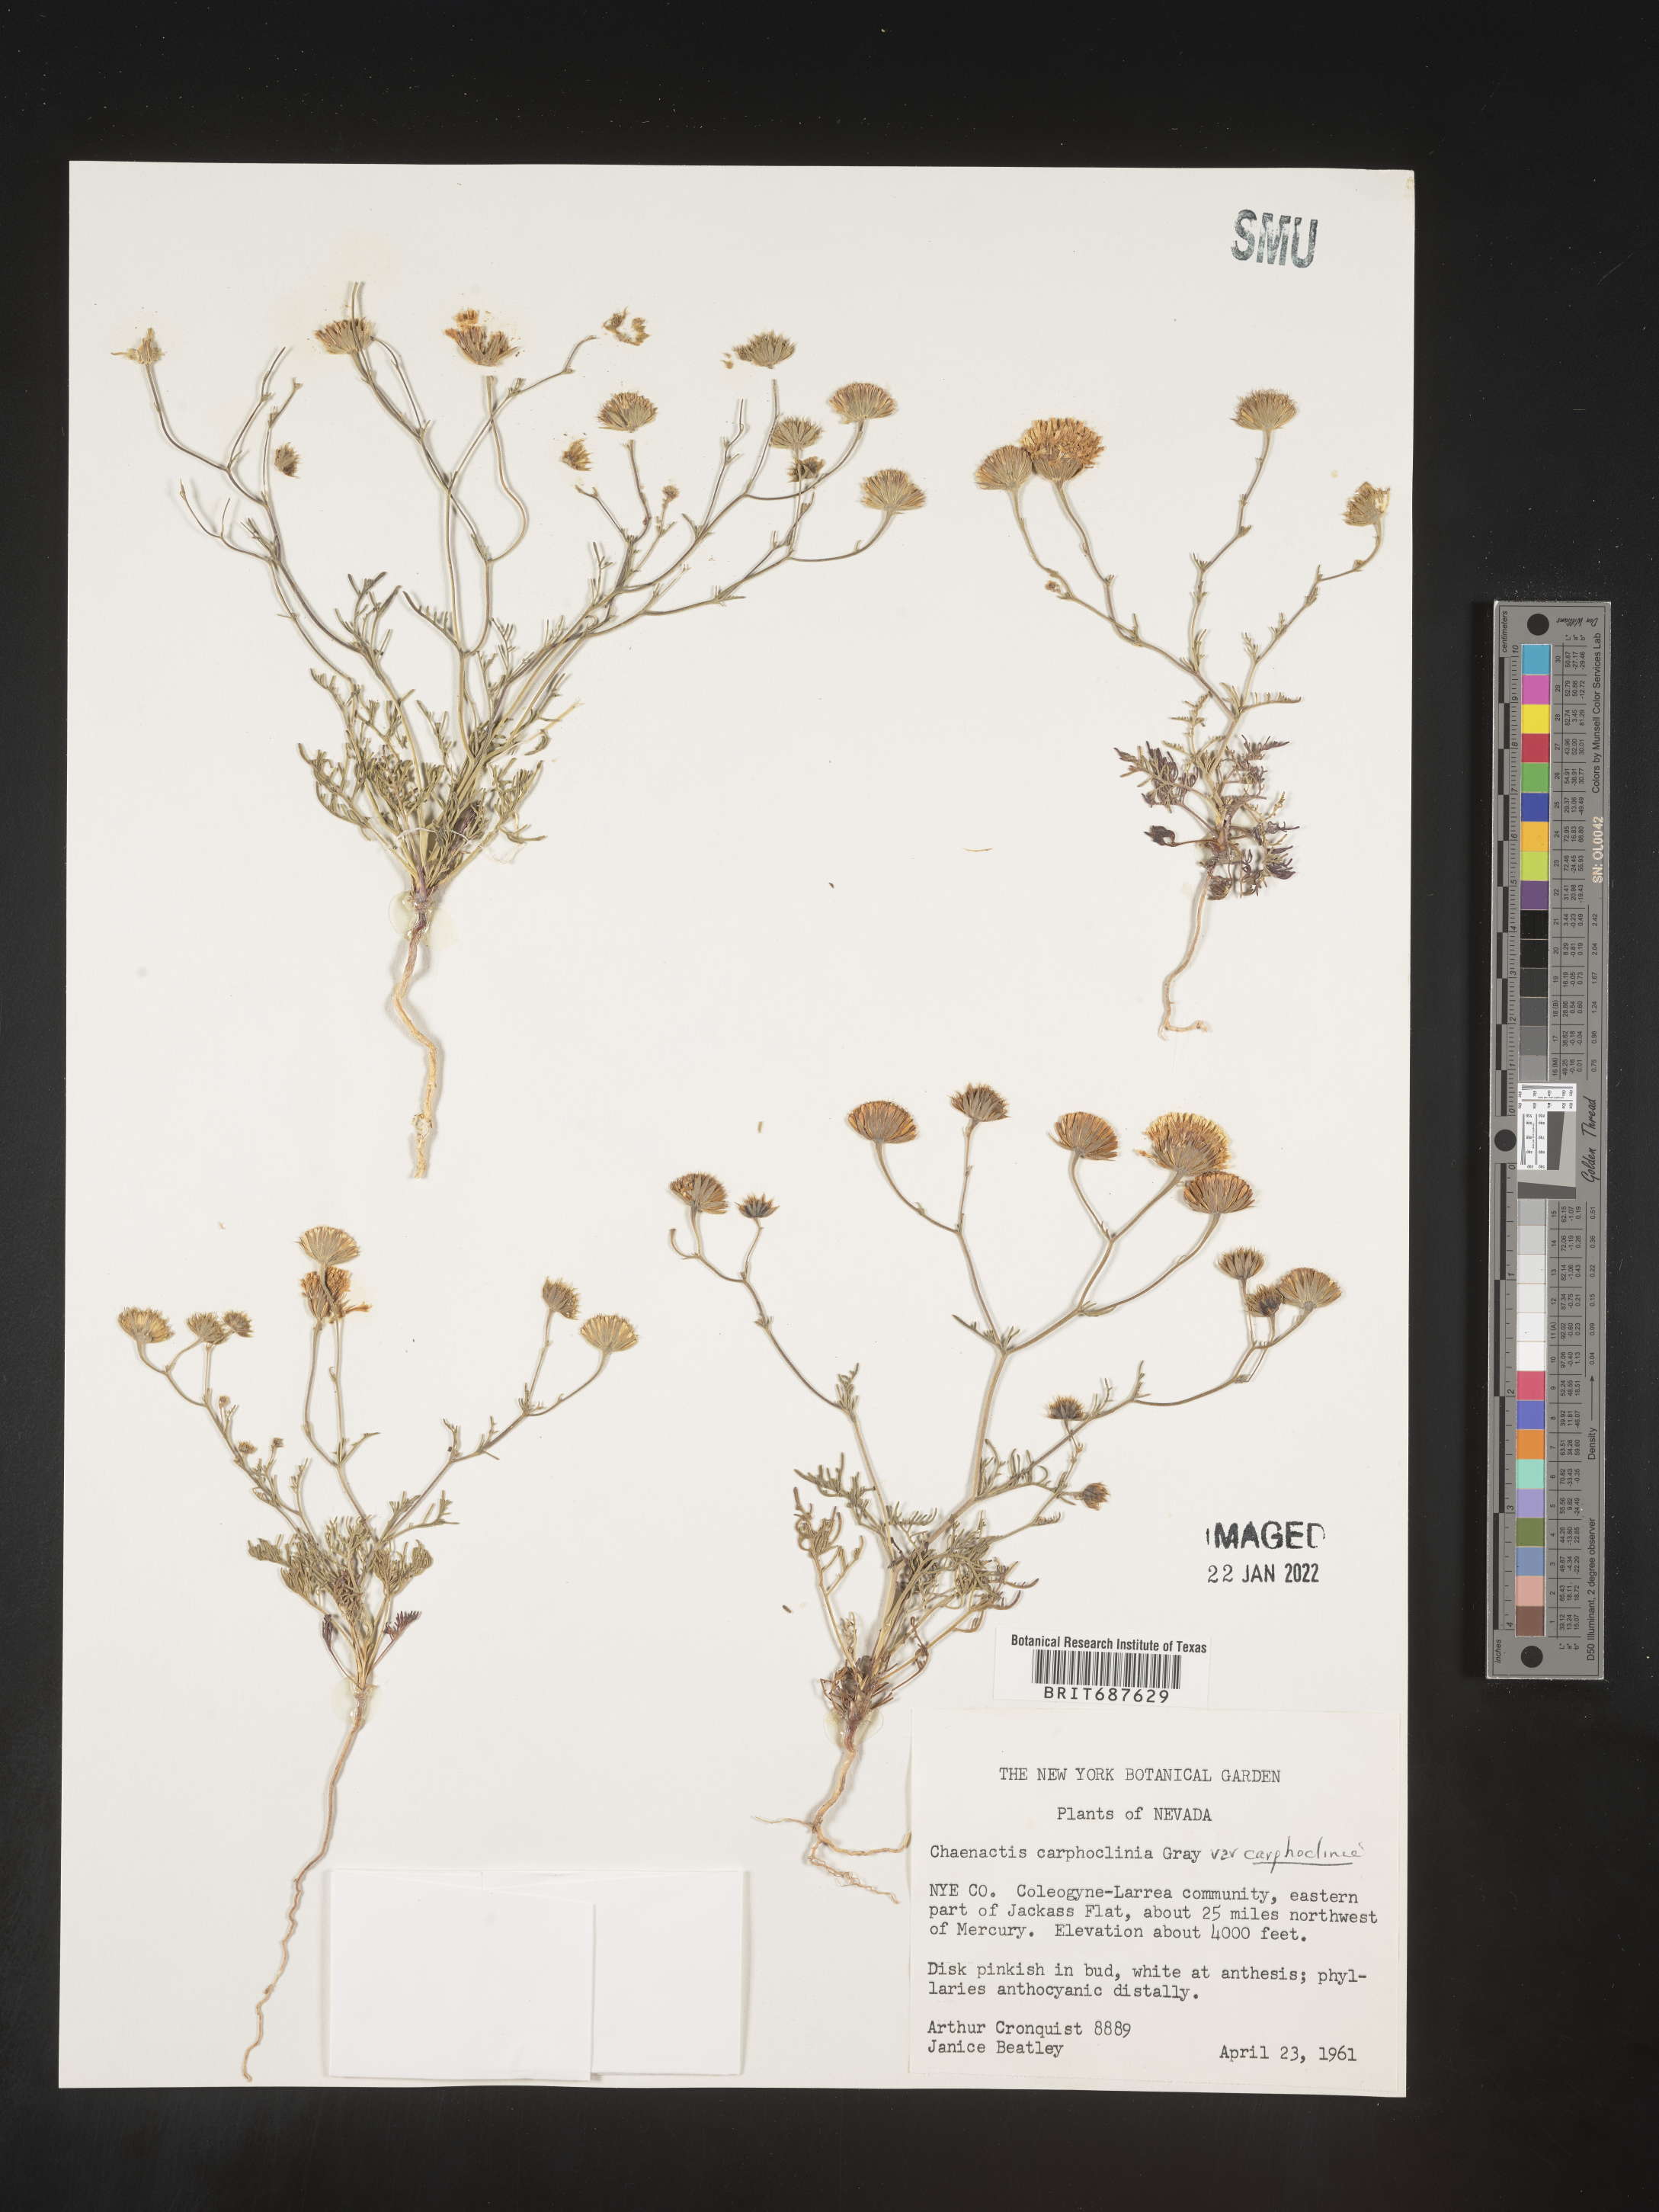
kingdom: Plantae
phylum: Tracheophyta
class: Magnoliopsida
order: Asterales
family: Asteraceae
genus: Chaenactis
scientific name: Chaenactis carphoclinia
